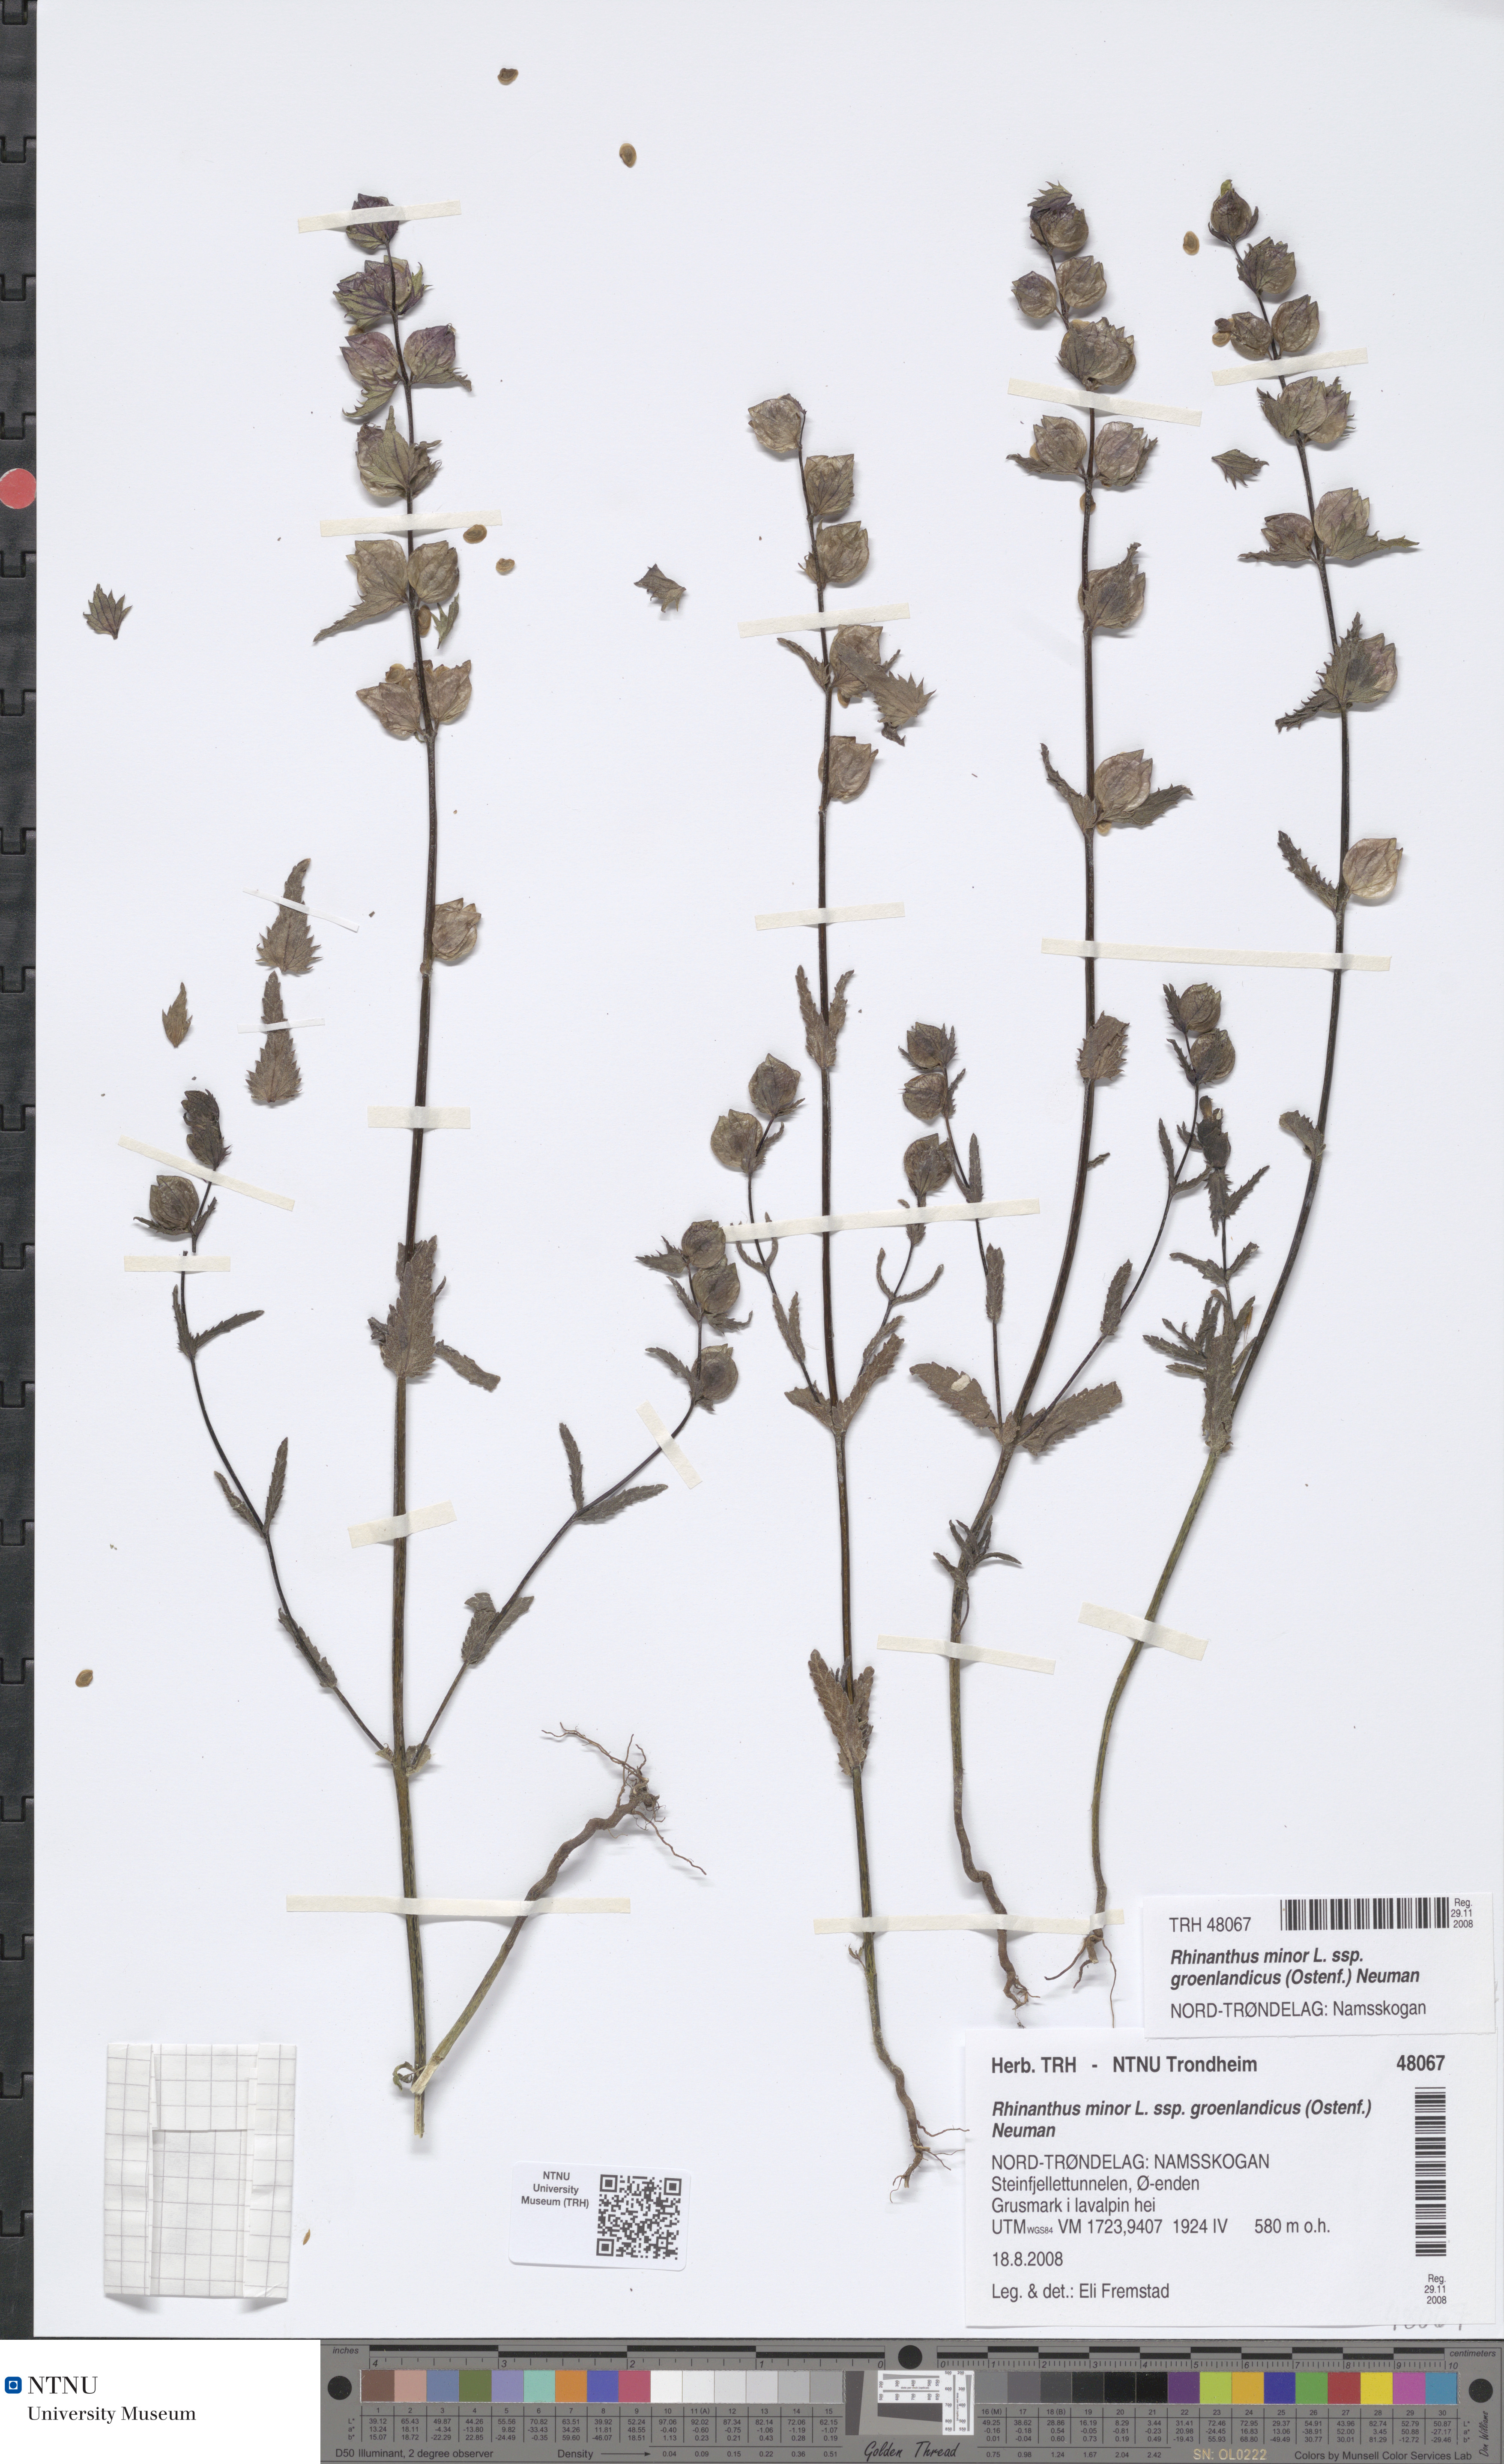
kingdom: Plantae
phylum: Tracheophyta
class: Magnoliopsida
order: Lamiales
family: Orobanchaceae
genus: Rhinanthus
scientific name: Rhinanthus groenlandicus
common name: Little yellow rattle
